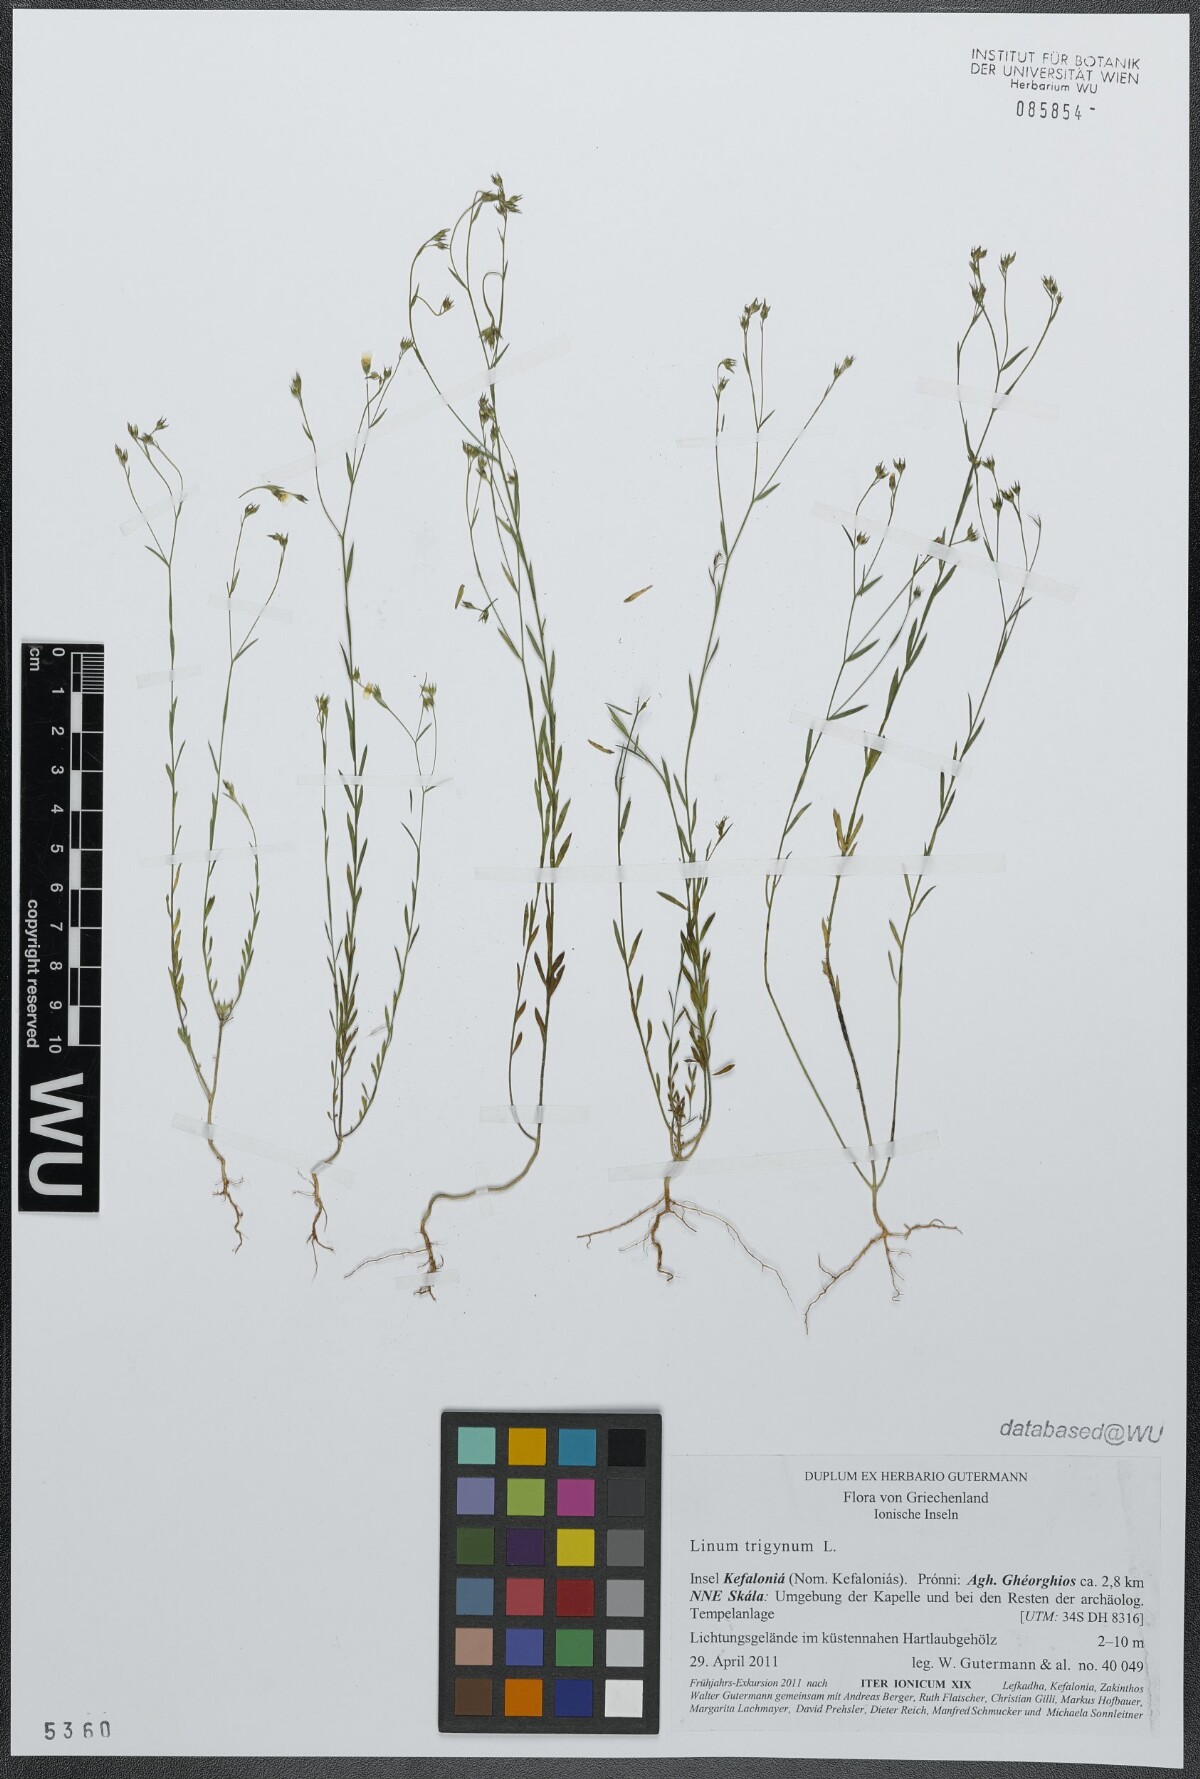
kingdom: Plantae
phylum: Tracheophyta
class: Magnoliopsida
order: Malpighiales
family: Linaceae
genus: Linum
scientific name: Linum trigynum
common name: French flax
